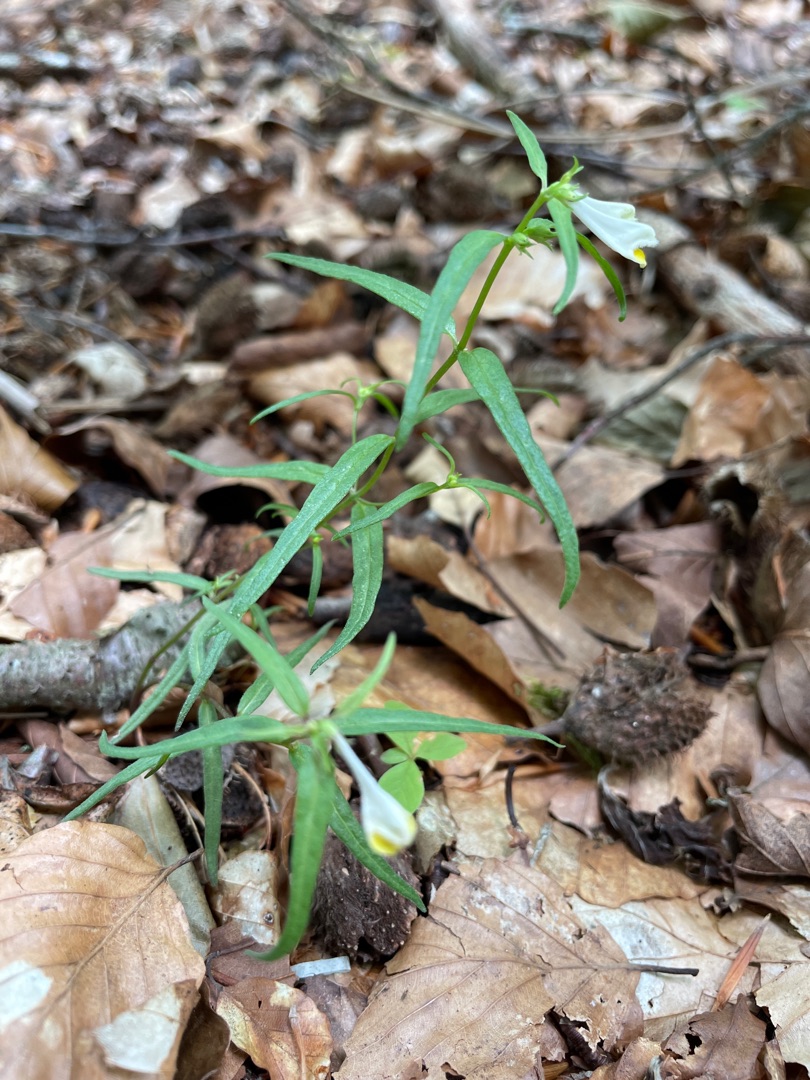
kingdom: Plantae
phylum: Tracheophyta
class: Magnoliopsida
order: Lamiales
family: Orobanchaceae
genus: Melampyrum
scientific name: Melampyrum pratense
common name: Almindelig kohvede
